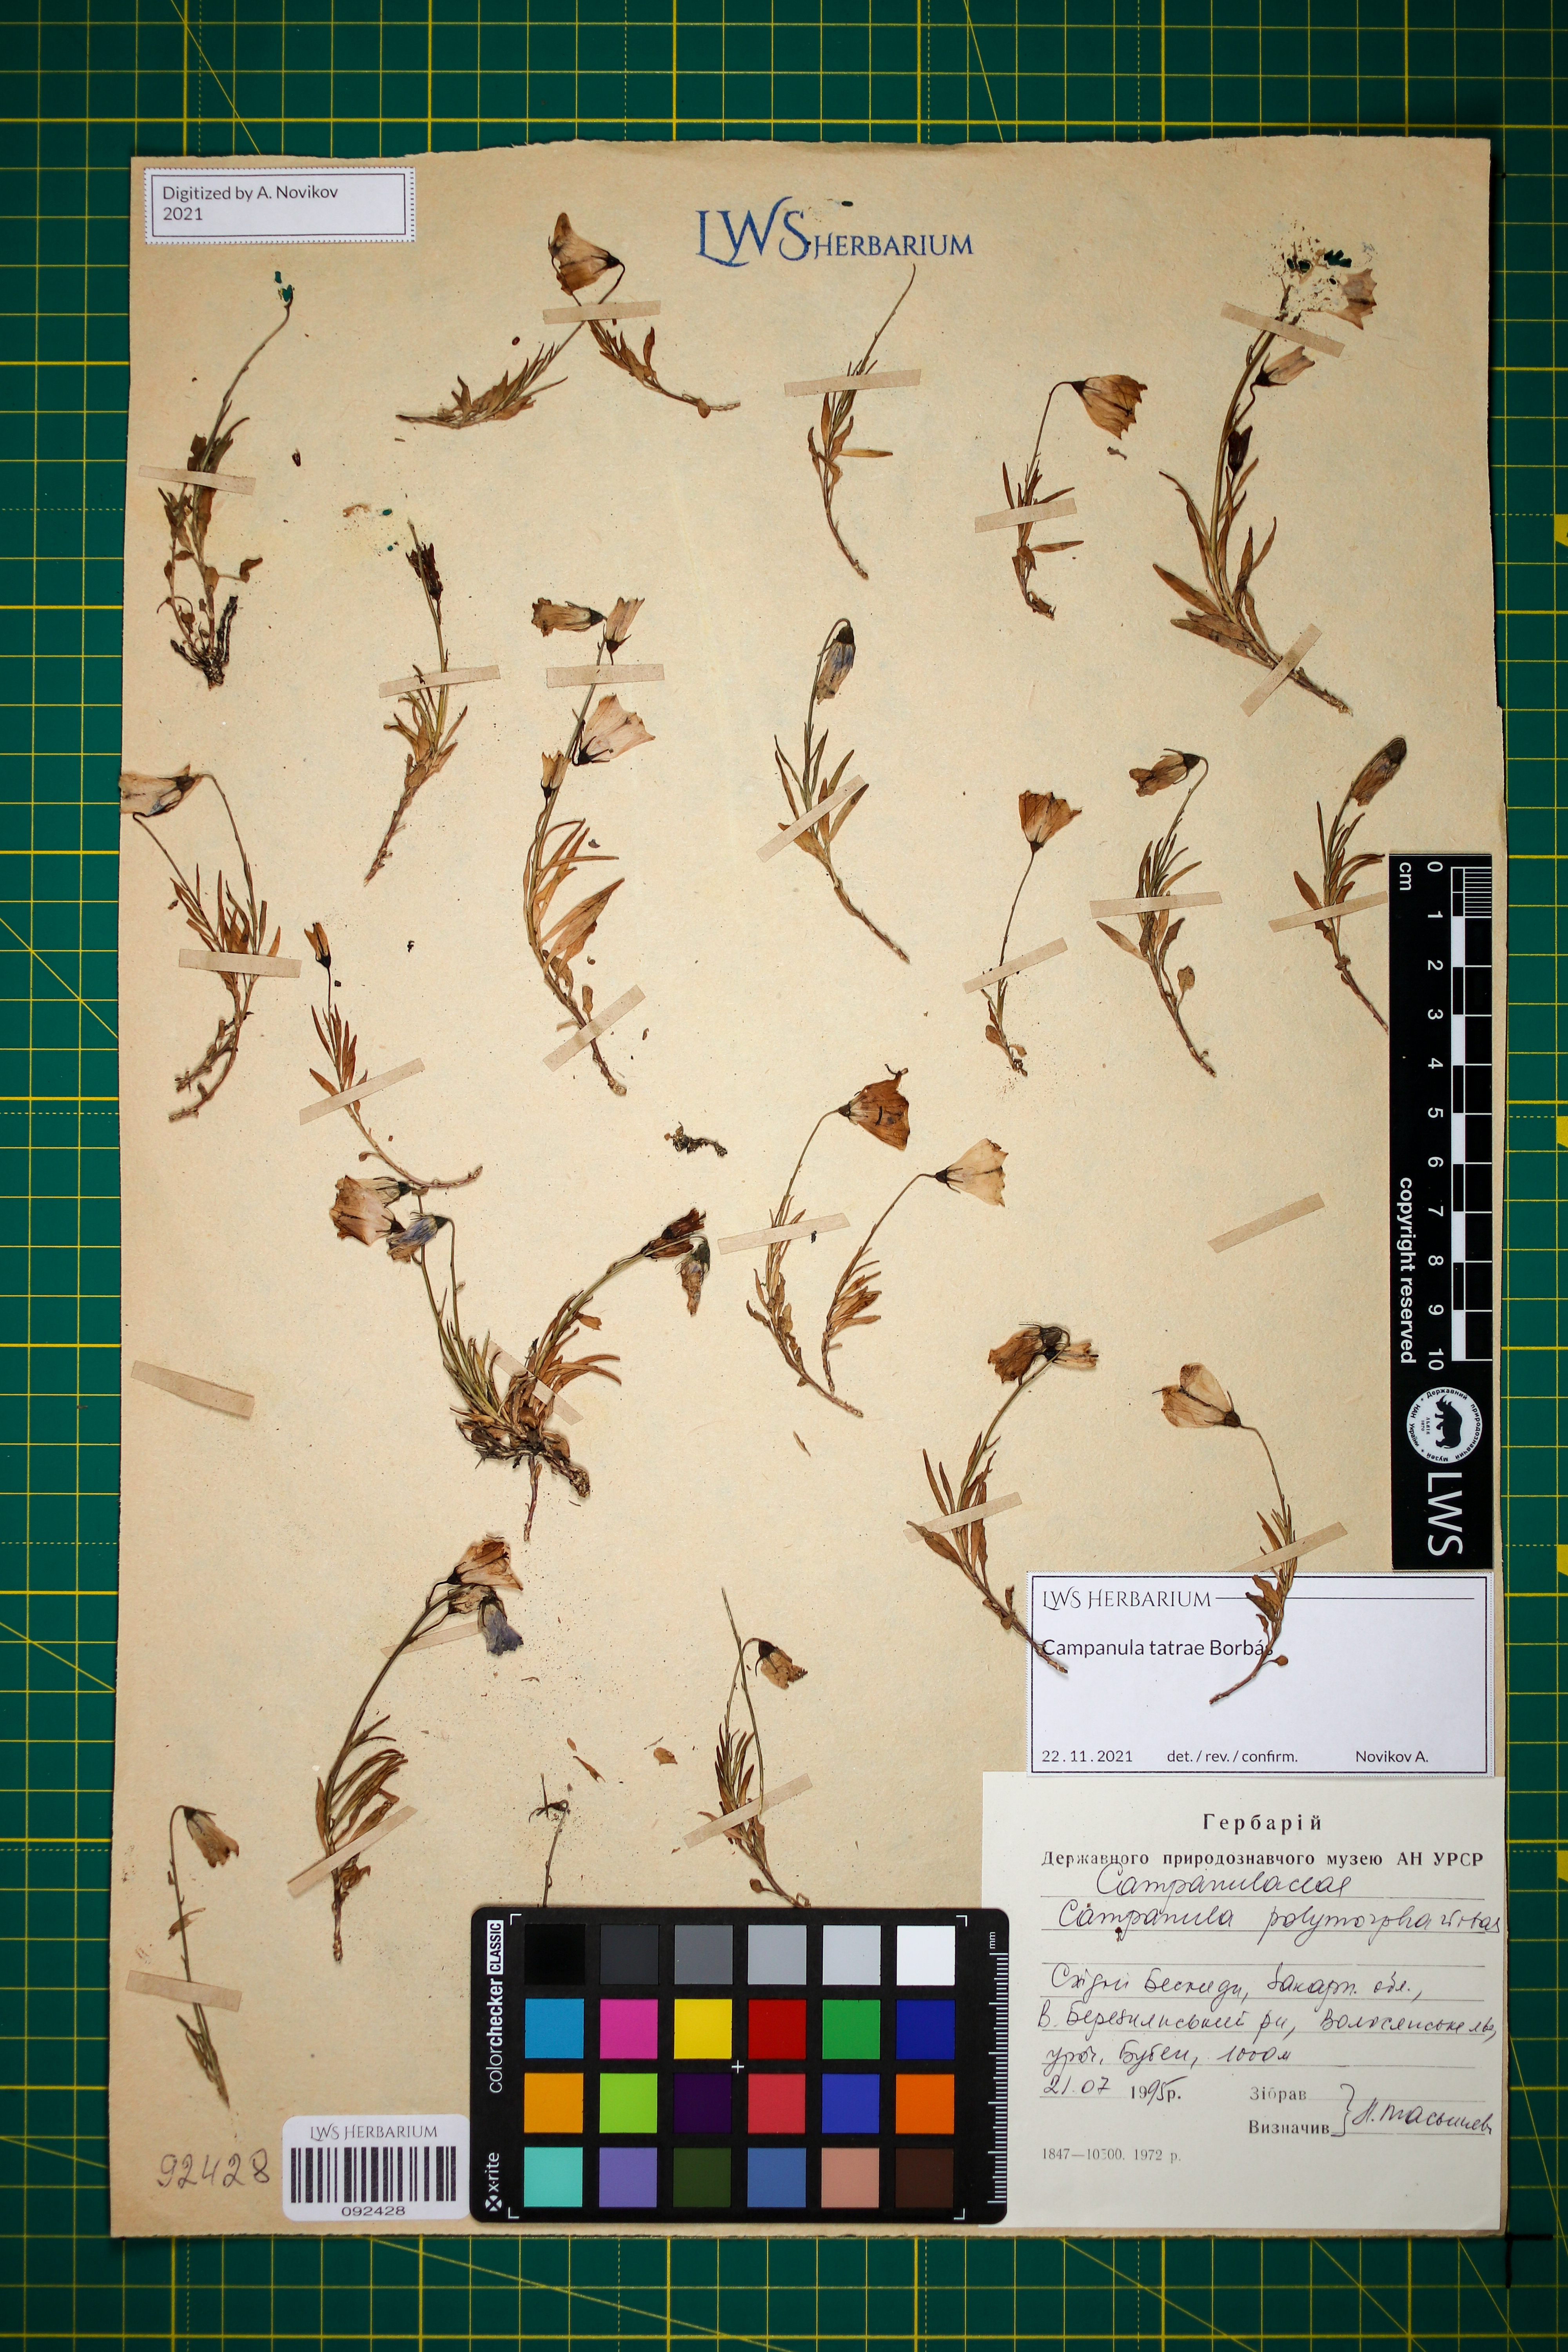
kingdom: Plantae
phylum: Tracheophyta
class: Magnoliopsida
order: Asterales
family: Campanulaceae
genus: Campanula
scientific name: Campanula tatrae
